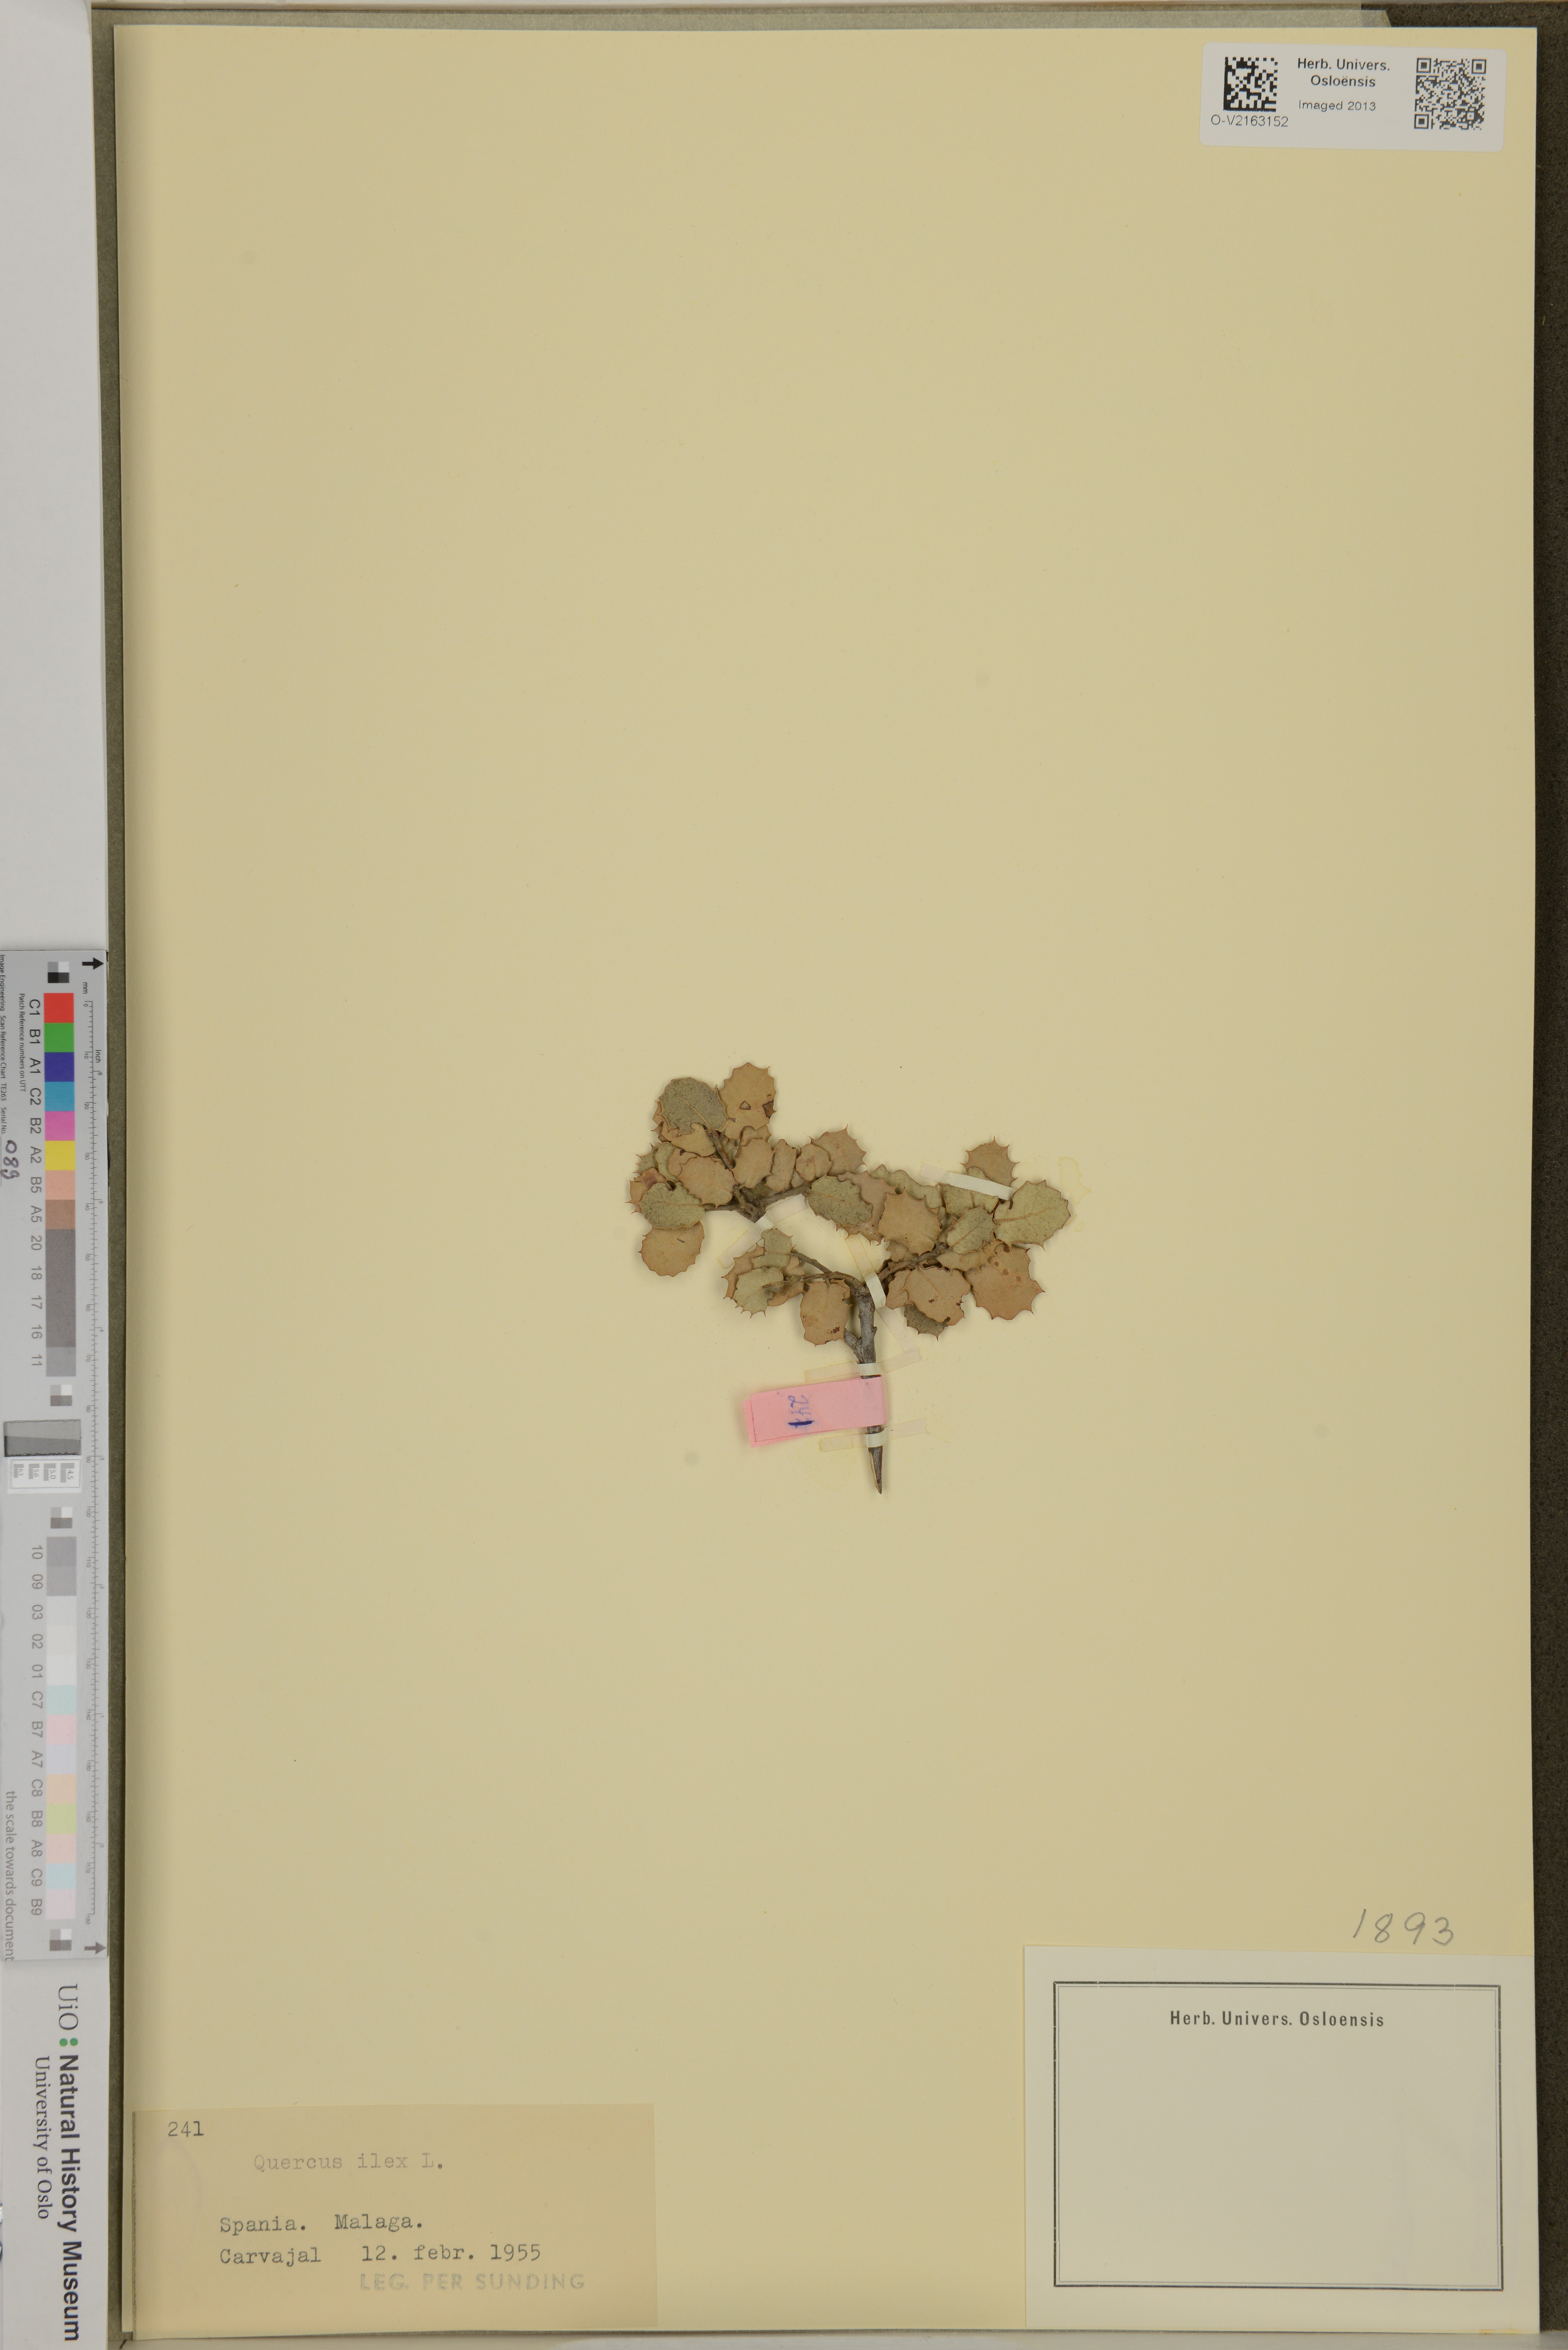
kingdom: Plantae
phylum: Tracheophyta
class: Magnoliopsida
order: Fagales
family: Fagaceae
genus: Quercus
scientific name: Quercus ilex
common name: Evergreen oak
